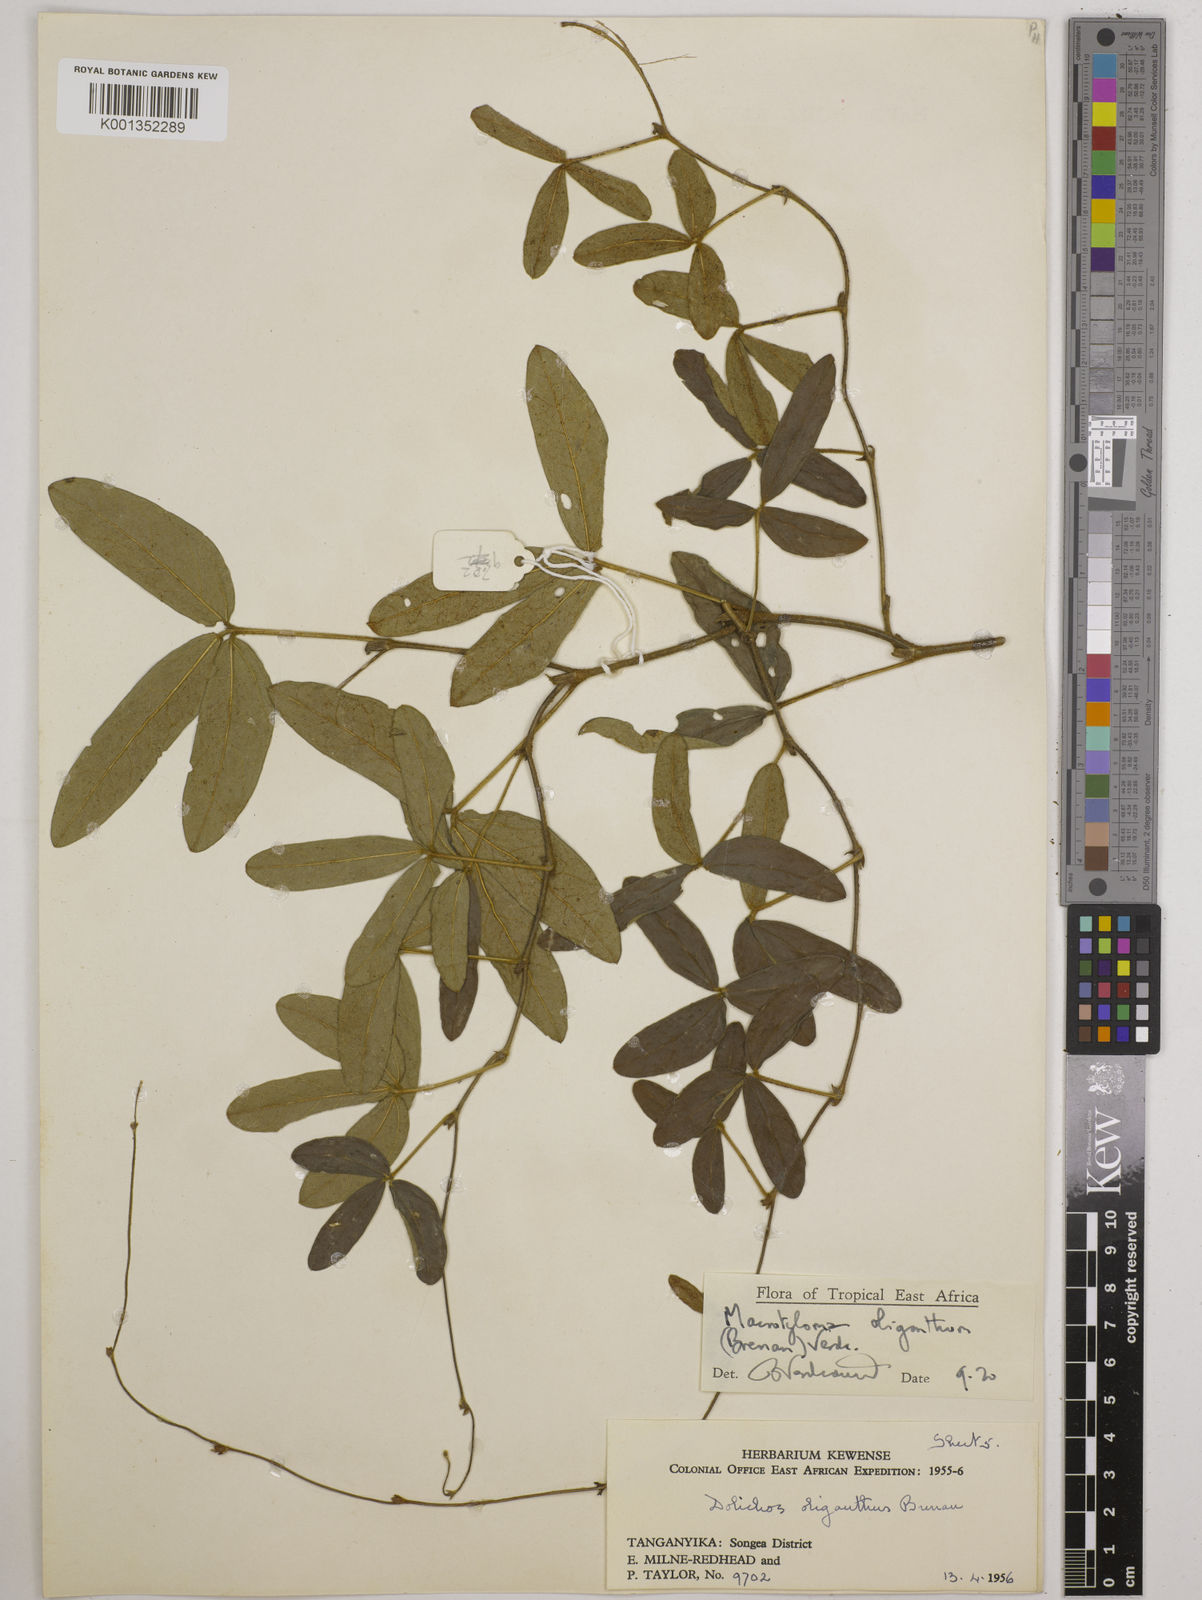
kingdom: Plantae
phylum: Tracheophyta
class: Magnoliopsida
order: Fabales
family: Fabaceae
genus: Macrotyloma
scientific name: Macrotyloma oliganthum
